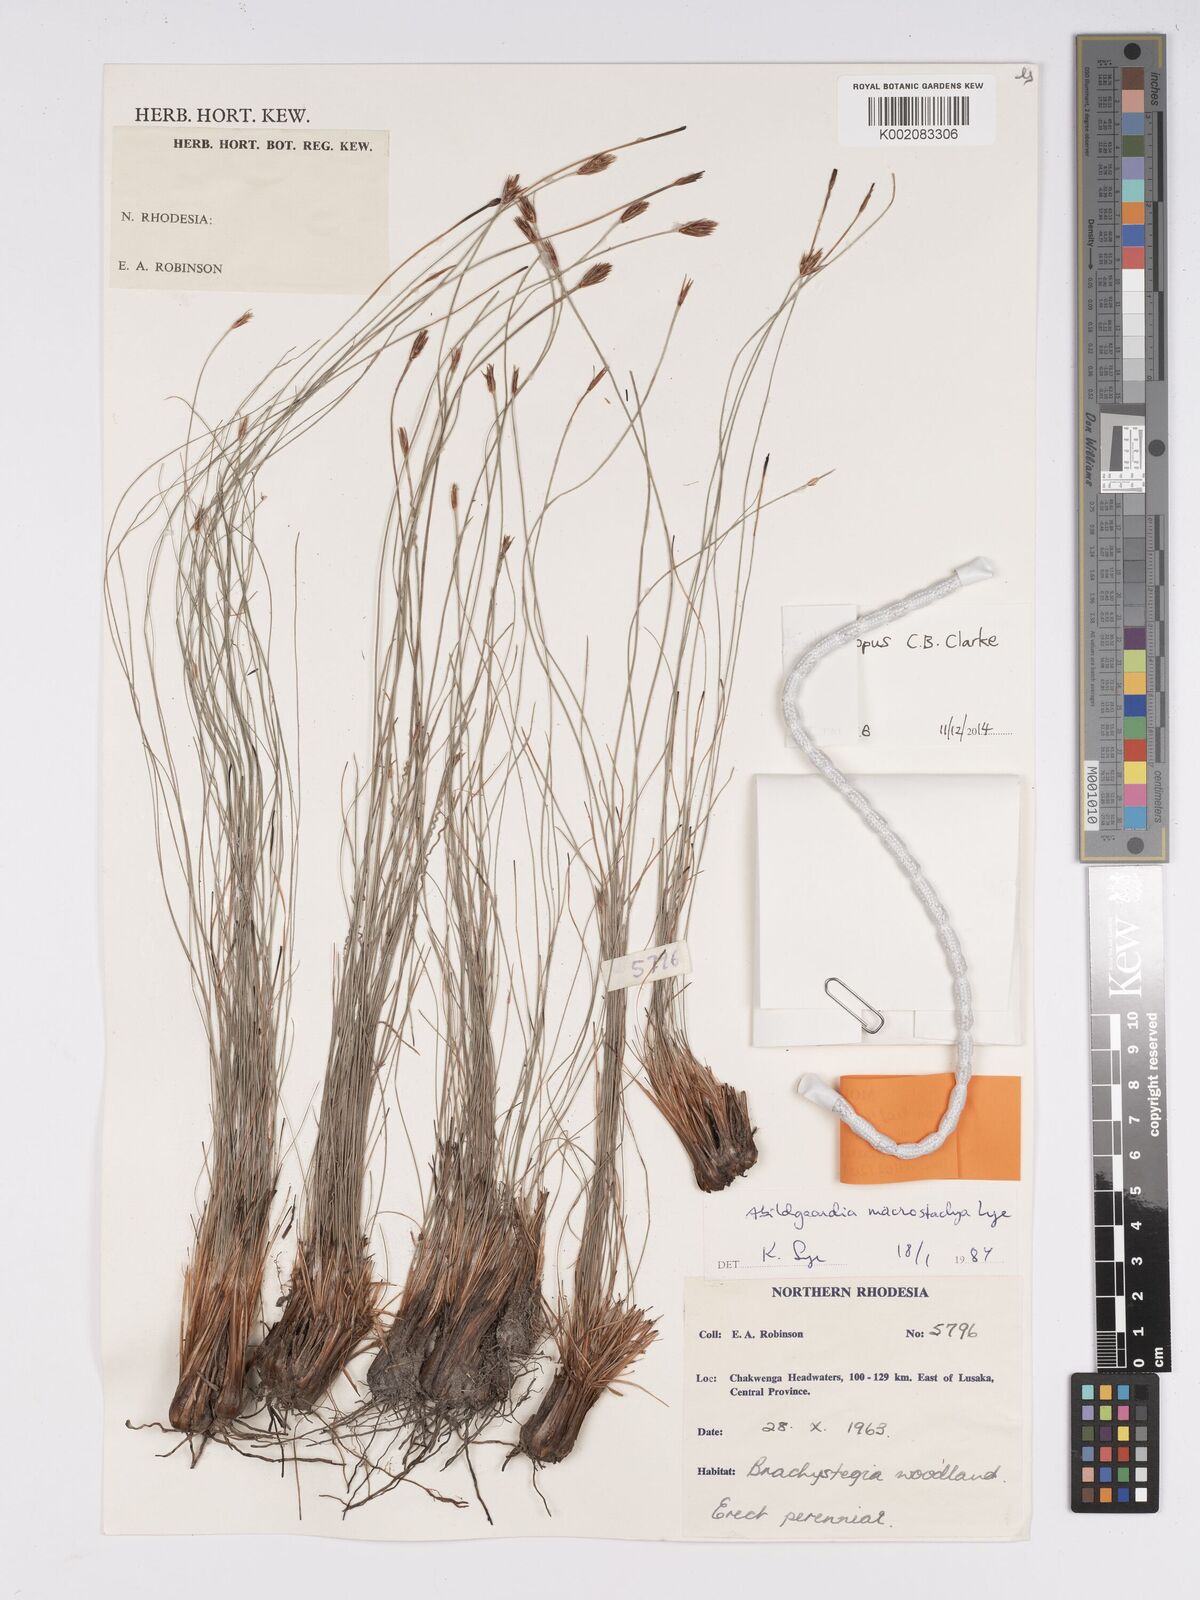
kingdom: Plantae
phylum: Tracheophyta
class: Liliopsida
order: Poales
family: Cyperaceae
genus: Bulbostylis
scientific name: Bulbostylis macrostachya
